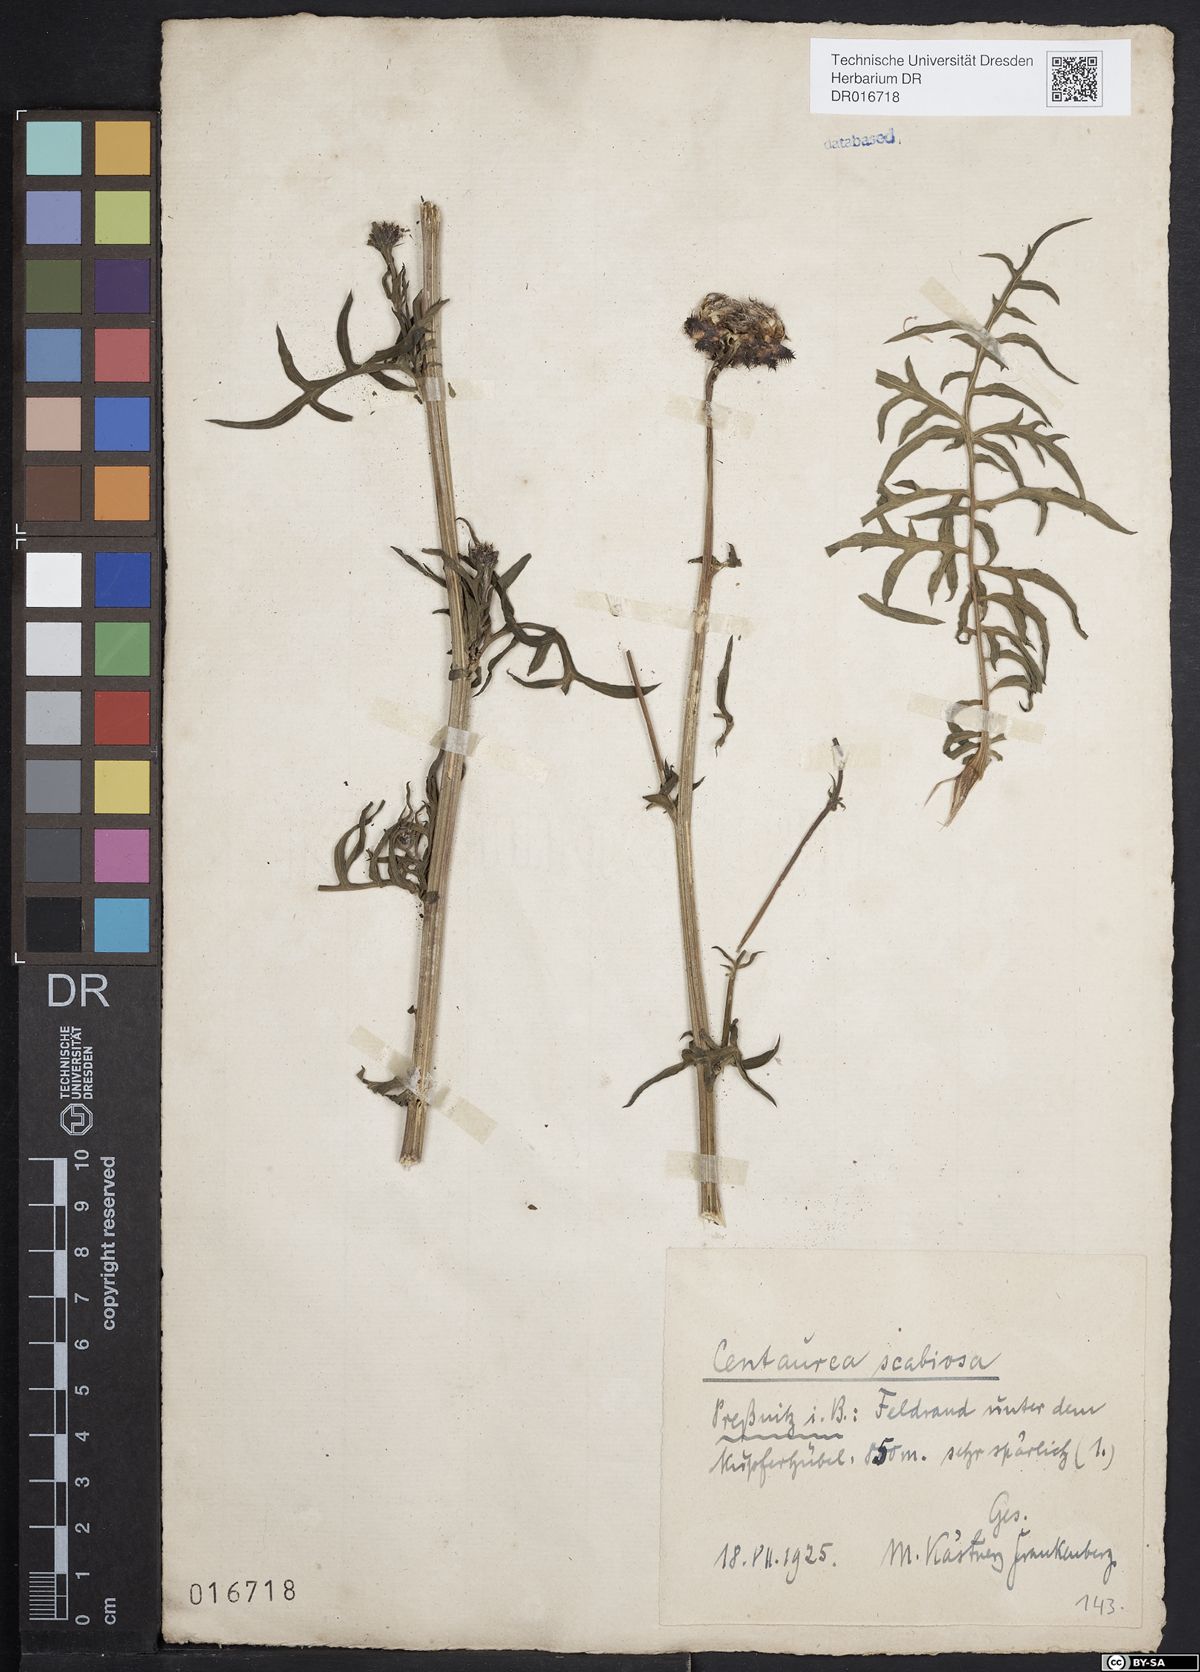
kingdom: Plantae
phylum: Tracheophyta
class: Magnoliopsida
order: Asterales
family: Asteraceae
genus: Centaurea
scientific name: Centaurea scabiosa
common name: Greater knapweed
